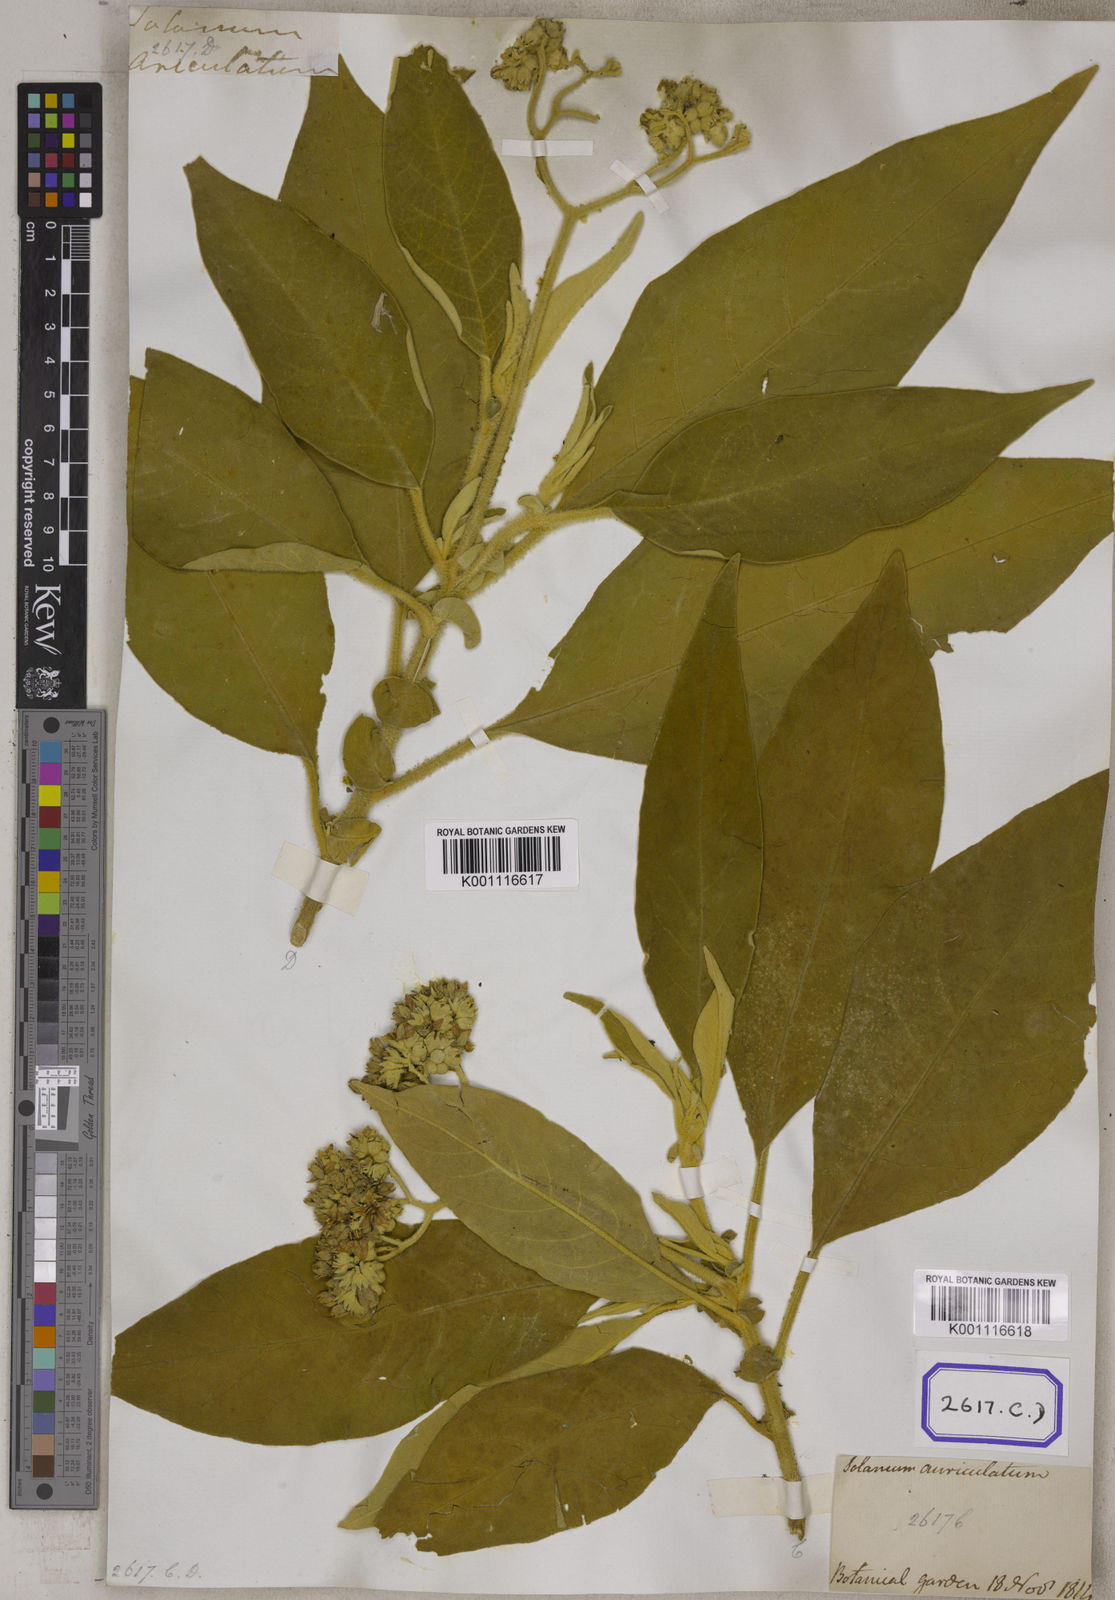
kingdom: Plantae
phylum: Tracheophyta
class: Magnoliopsida
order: Solanales
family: Solanaceae
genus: Solanum
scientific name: Solanum mauritianum
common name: Earleaf nightshade
